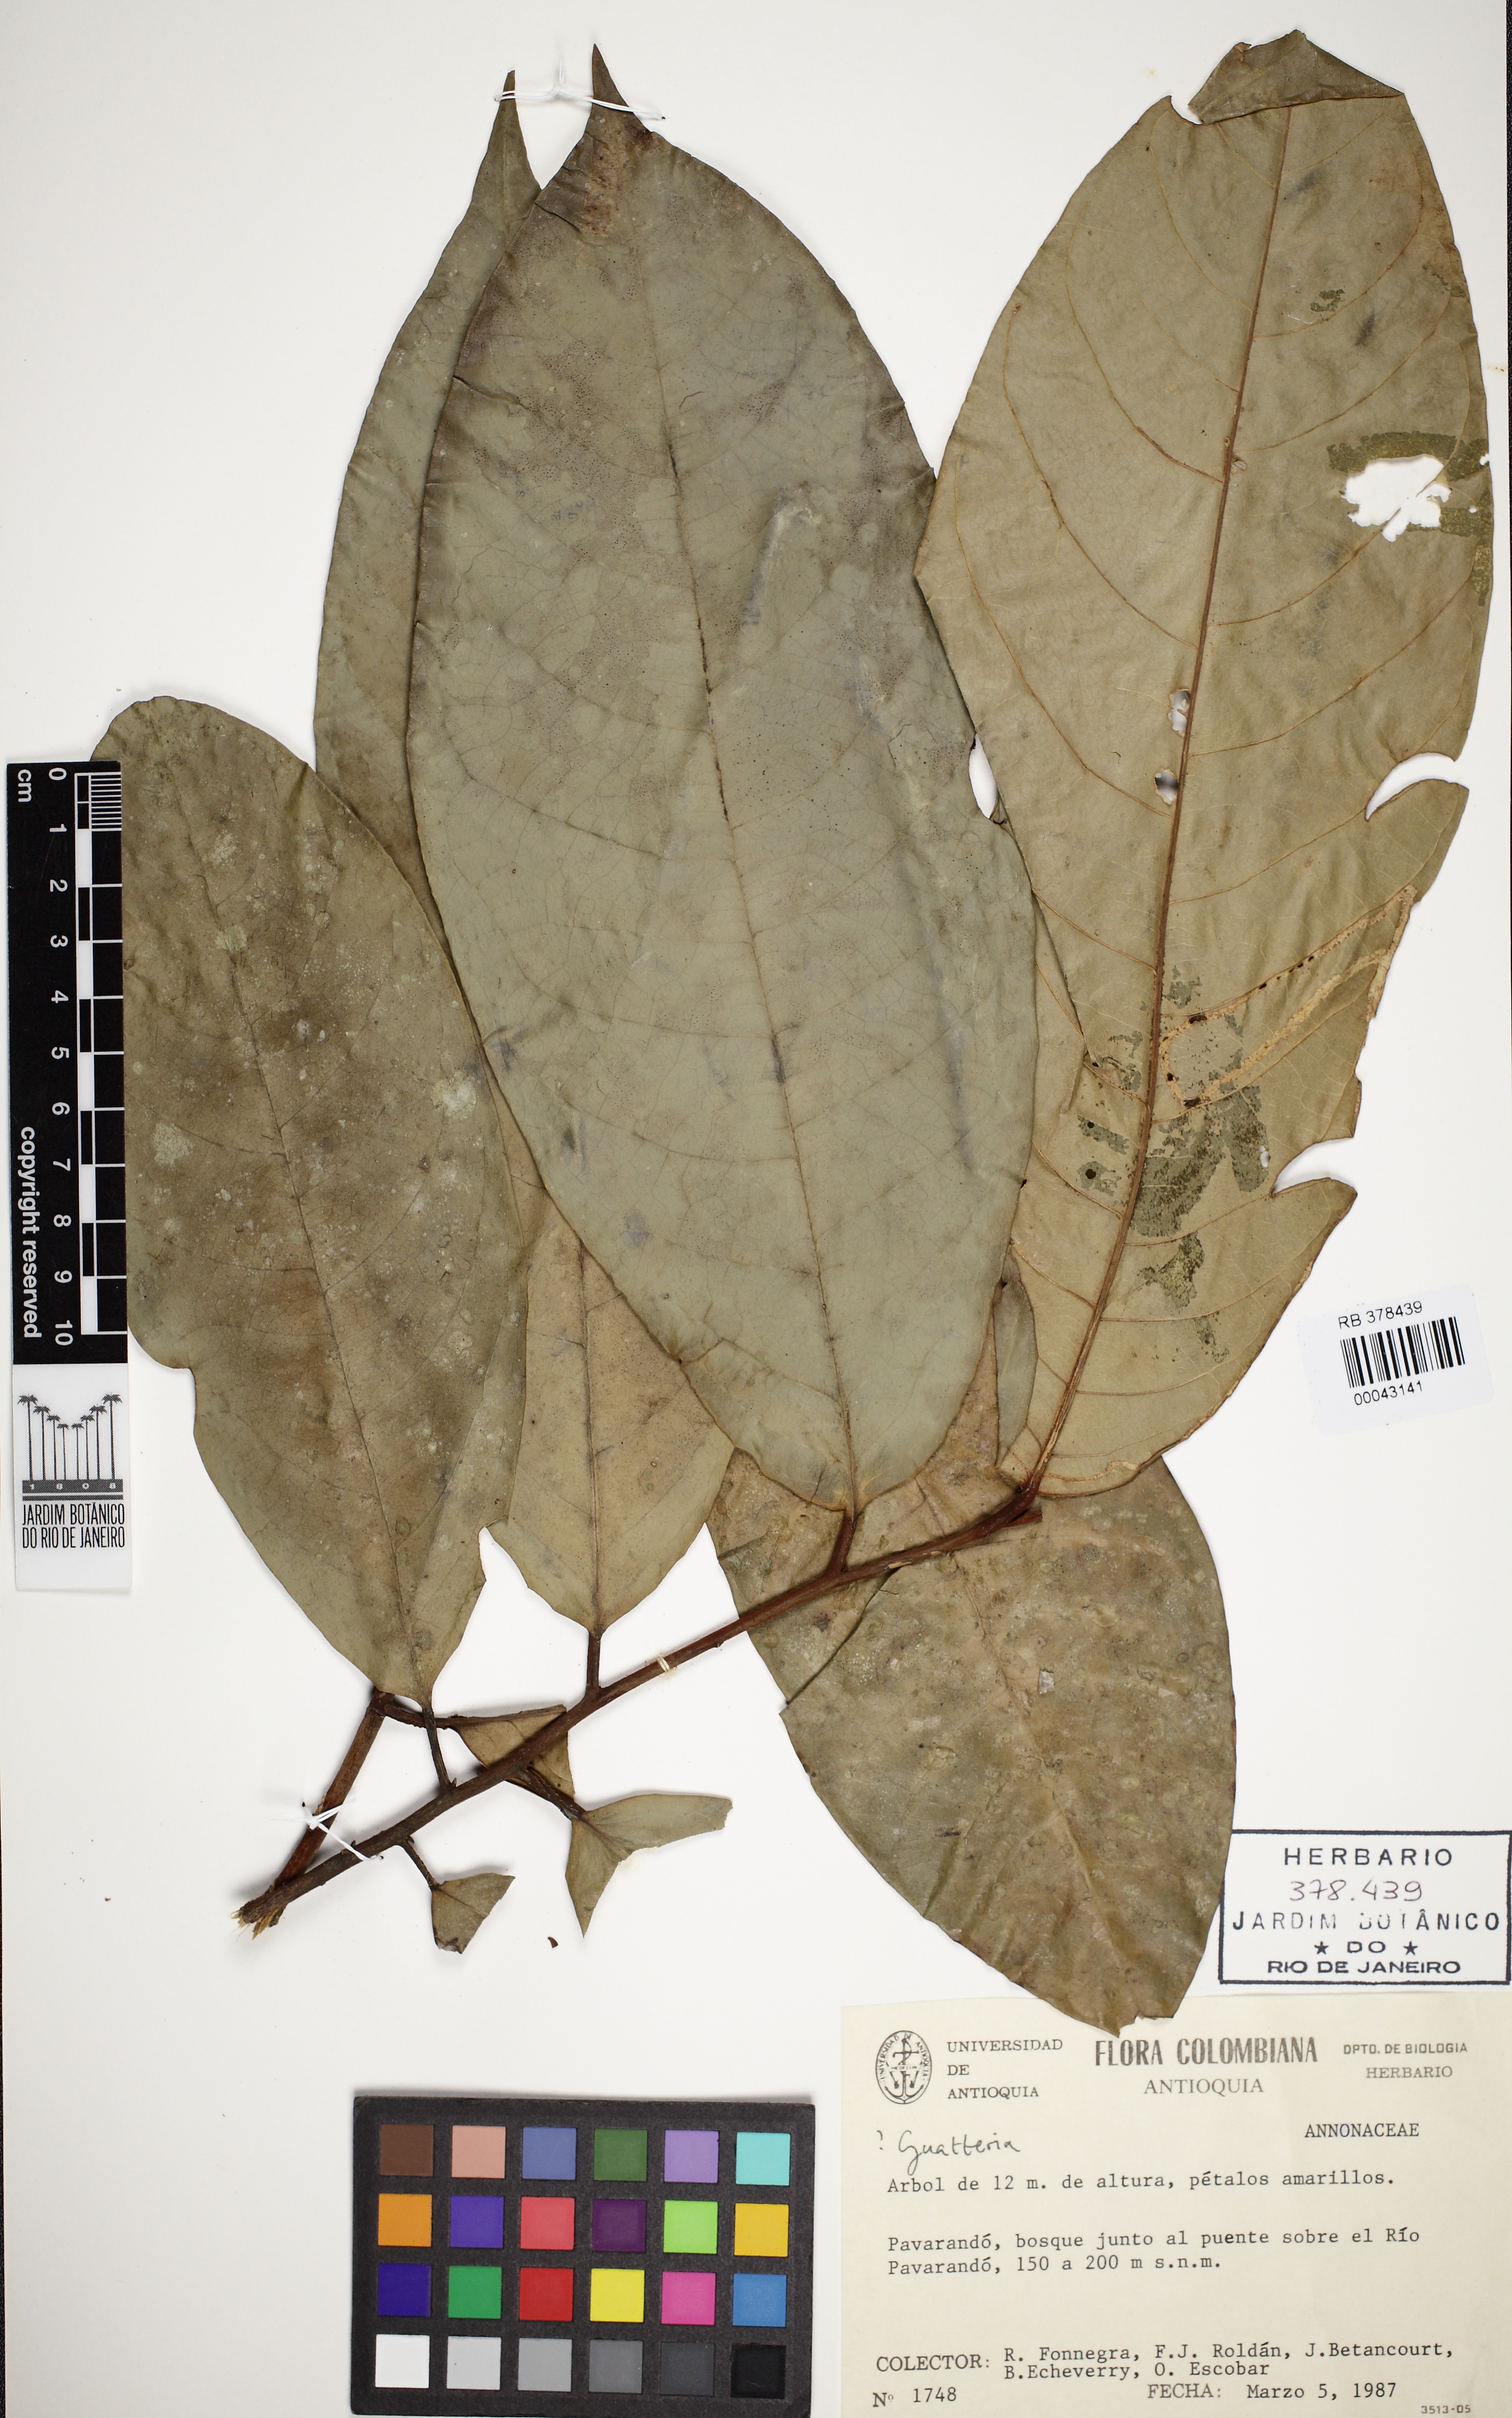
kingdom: Plantae
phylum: Tracheophyta
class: Magnoliopsida
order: Magnoliales
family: Annonaceae
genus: Guatteria
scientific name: Guatteria
